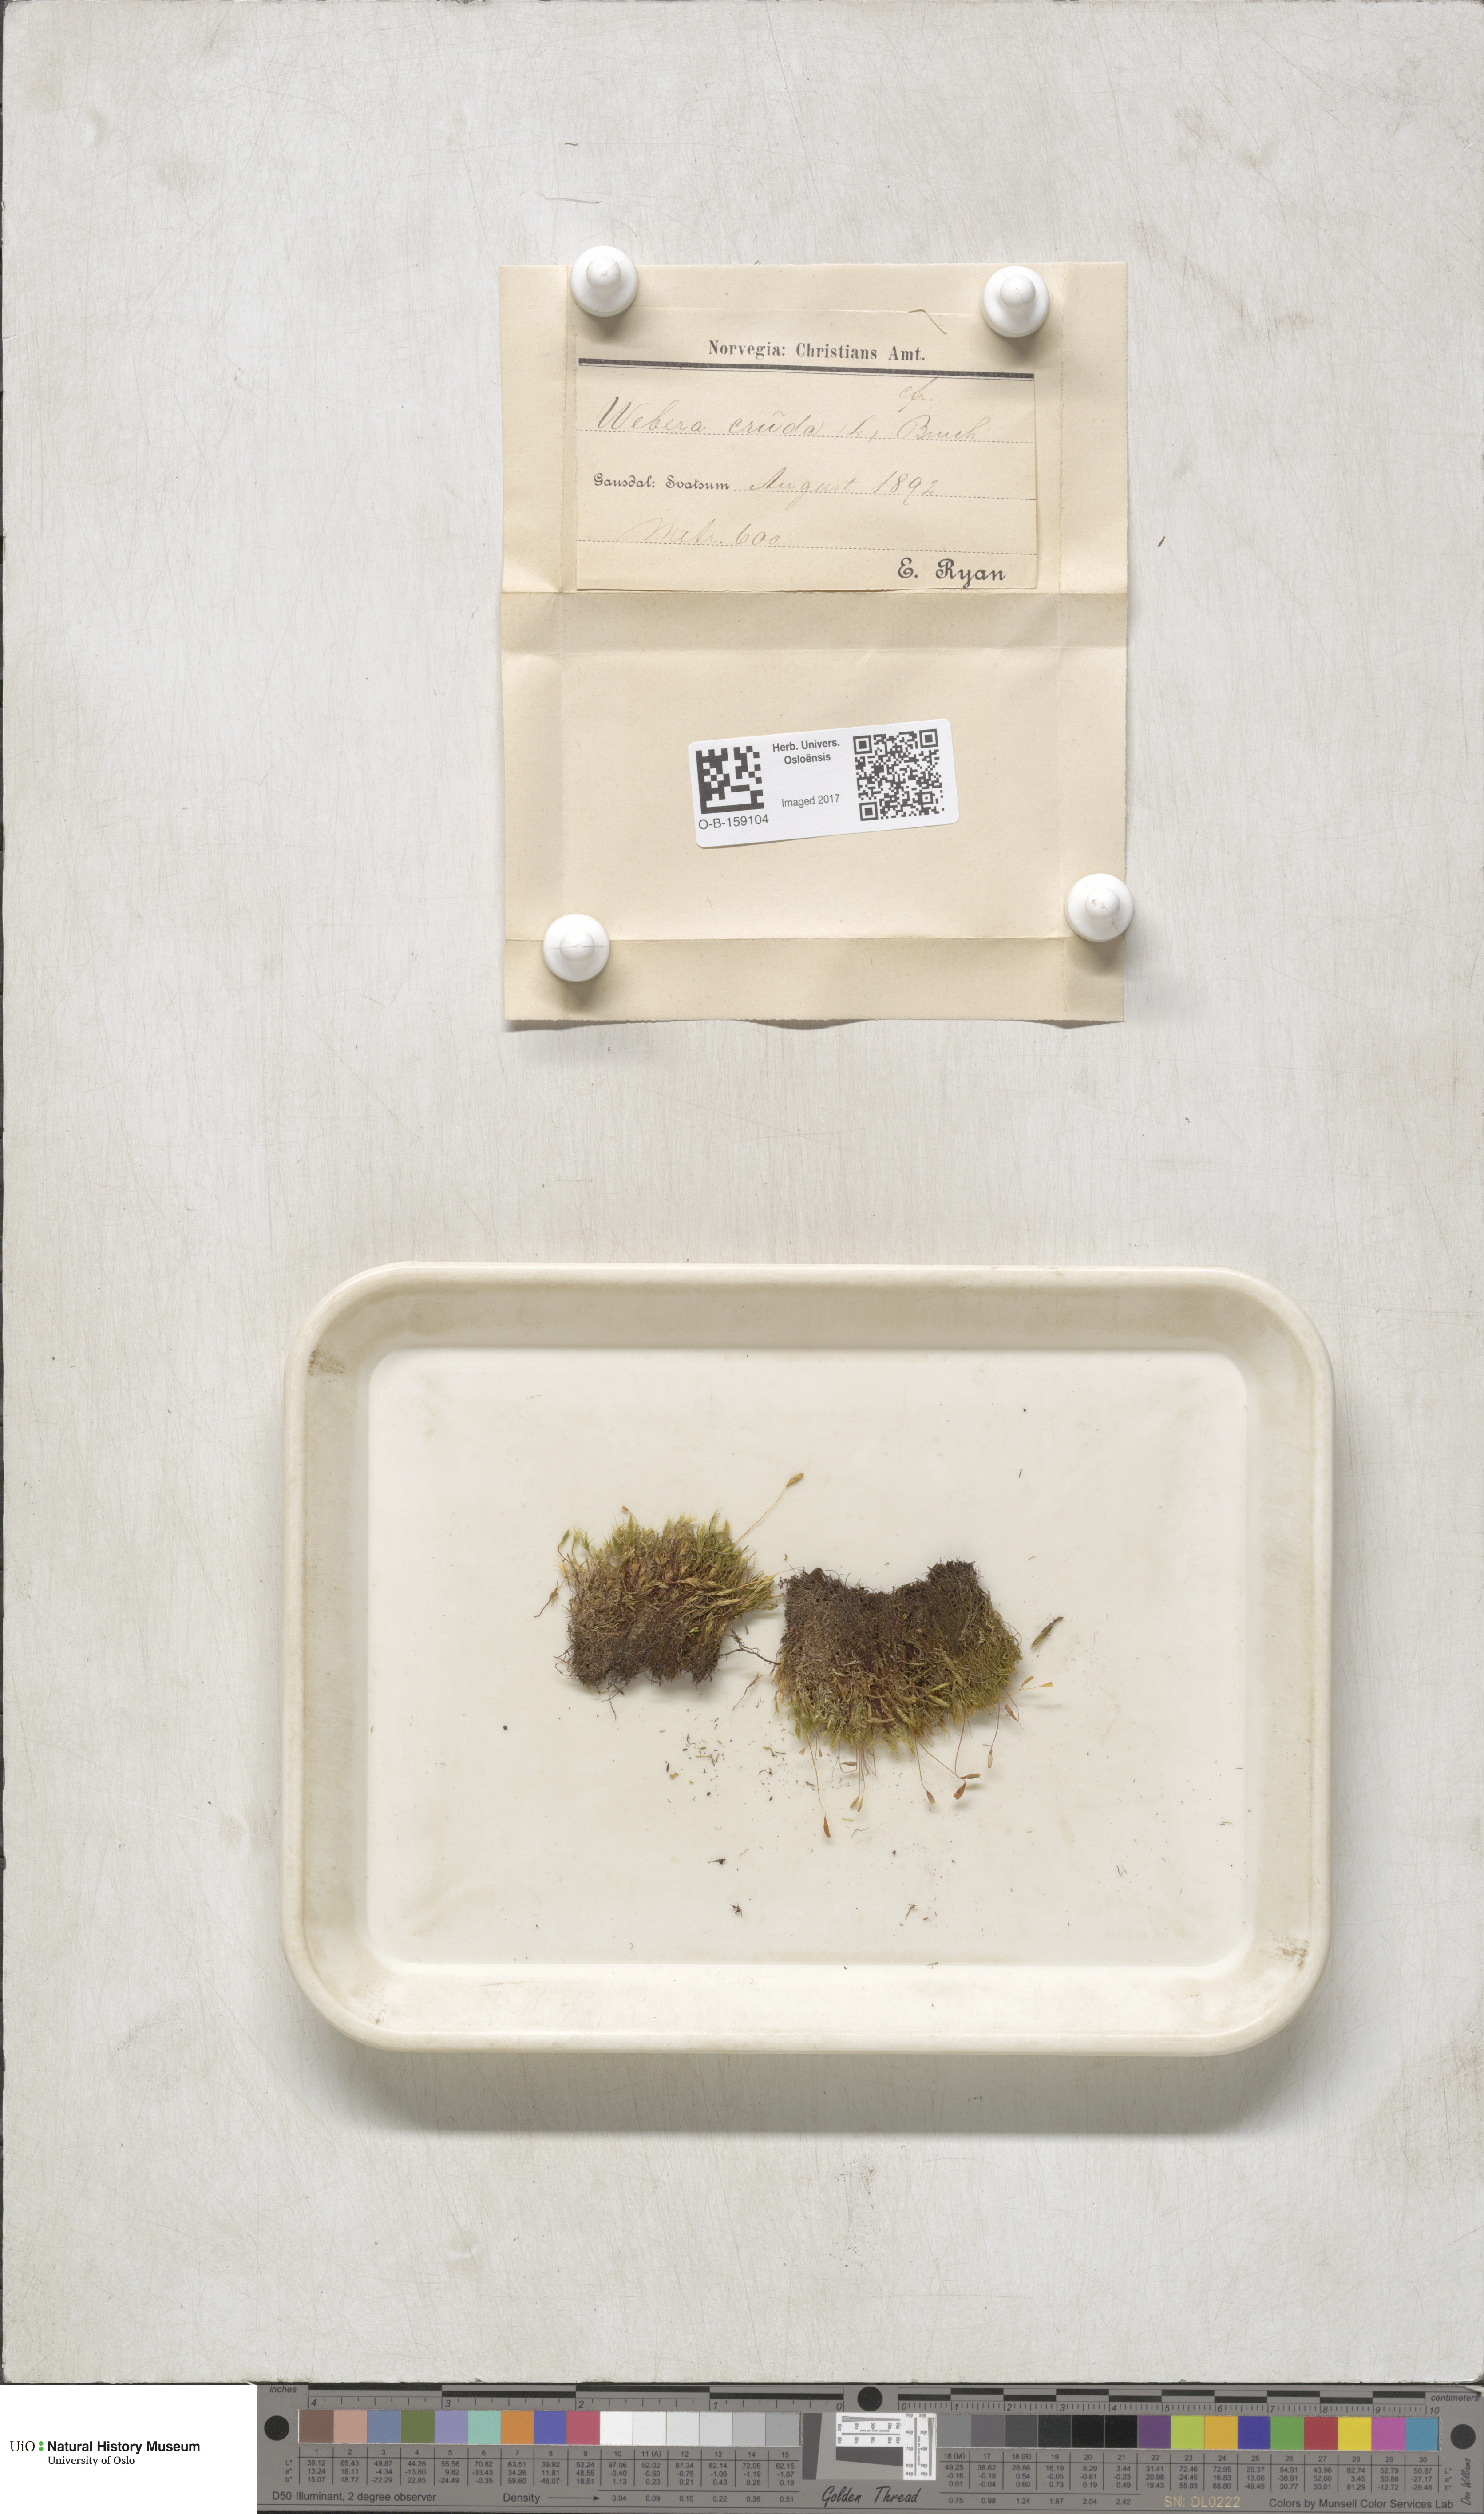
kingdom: Plantae
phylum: Bryophyta
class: Bryopsida
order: Bryales
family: Mniaceae
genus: Pohlia
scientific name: Pohlia cruda
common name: Opal nodding moss
